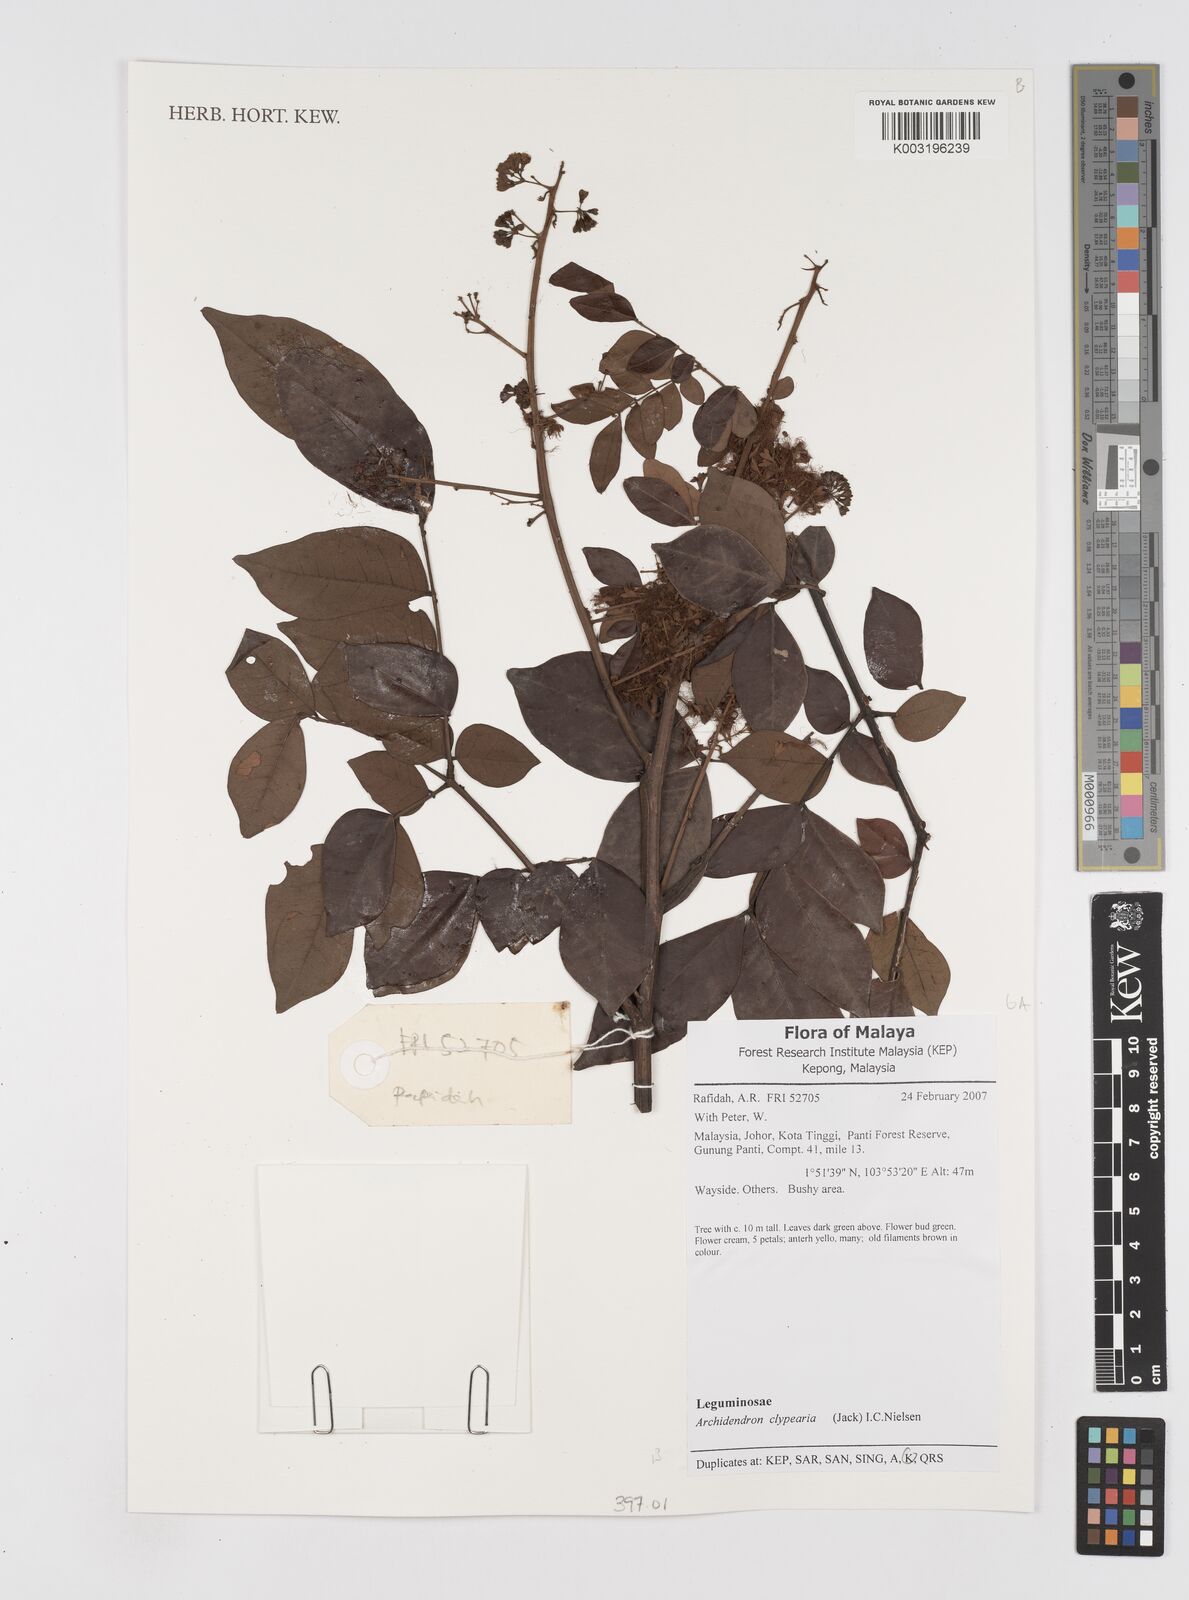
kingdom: Plantae
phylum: Tracheophyta
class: Magnoliopsida
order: Fabales
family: Fabaceae
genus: Archidendron
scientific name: Archidendron clypearia
